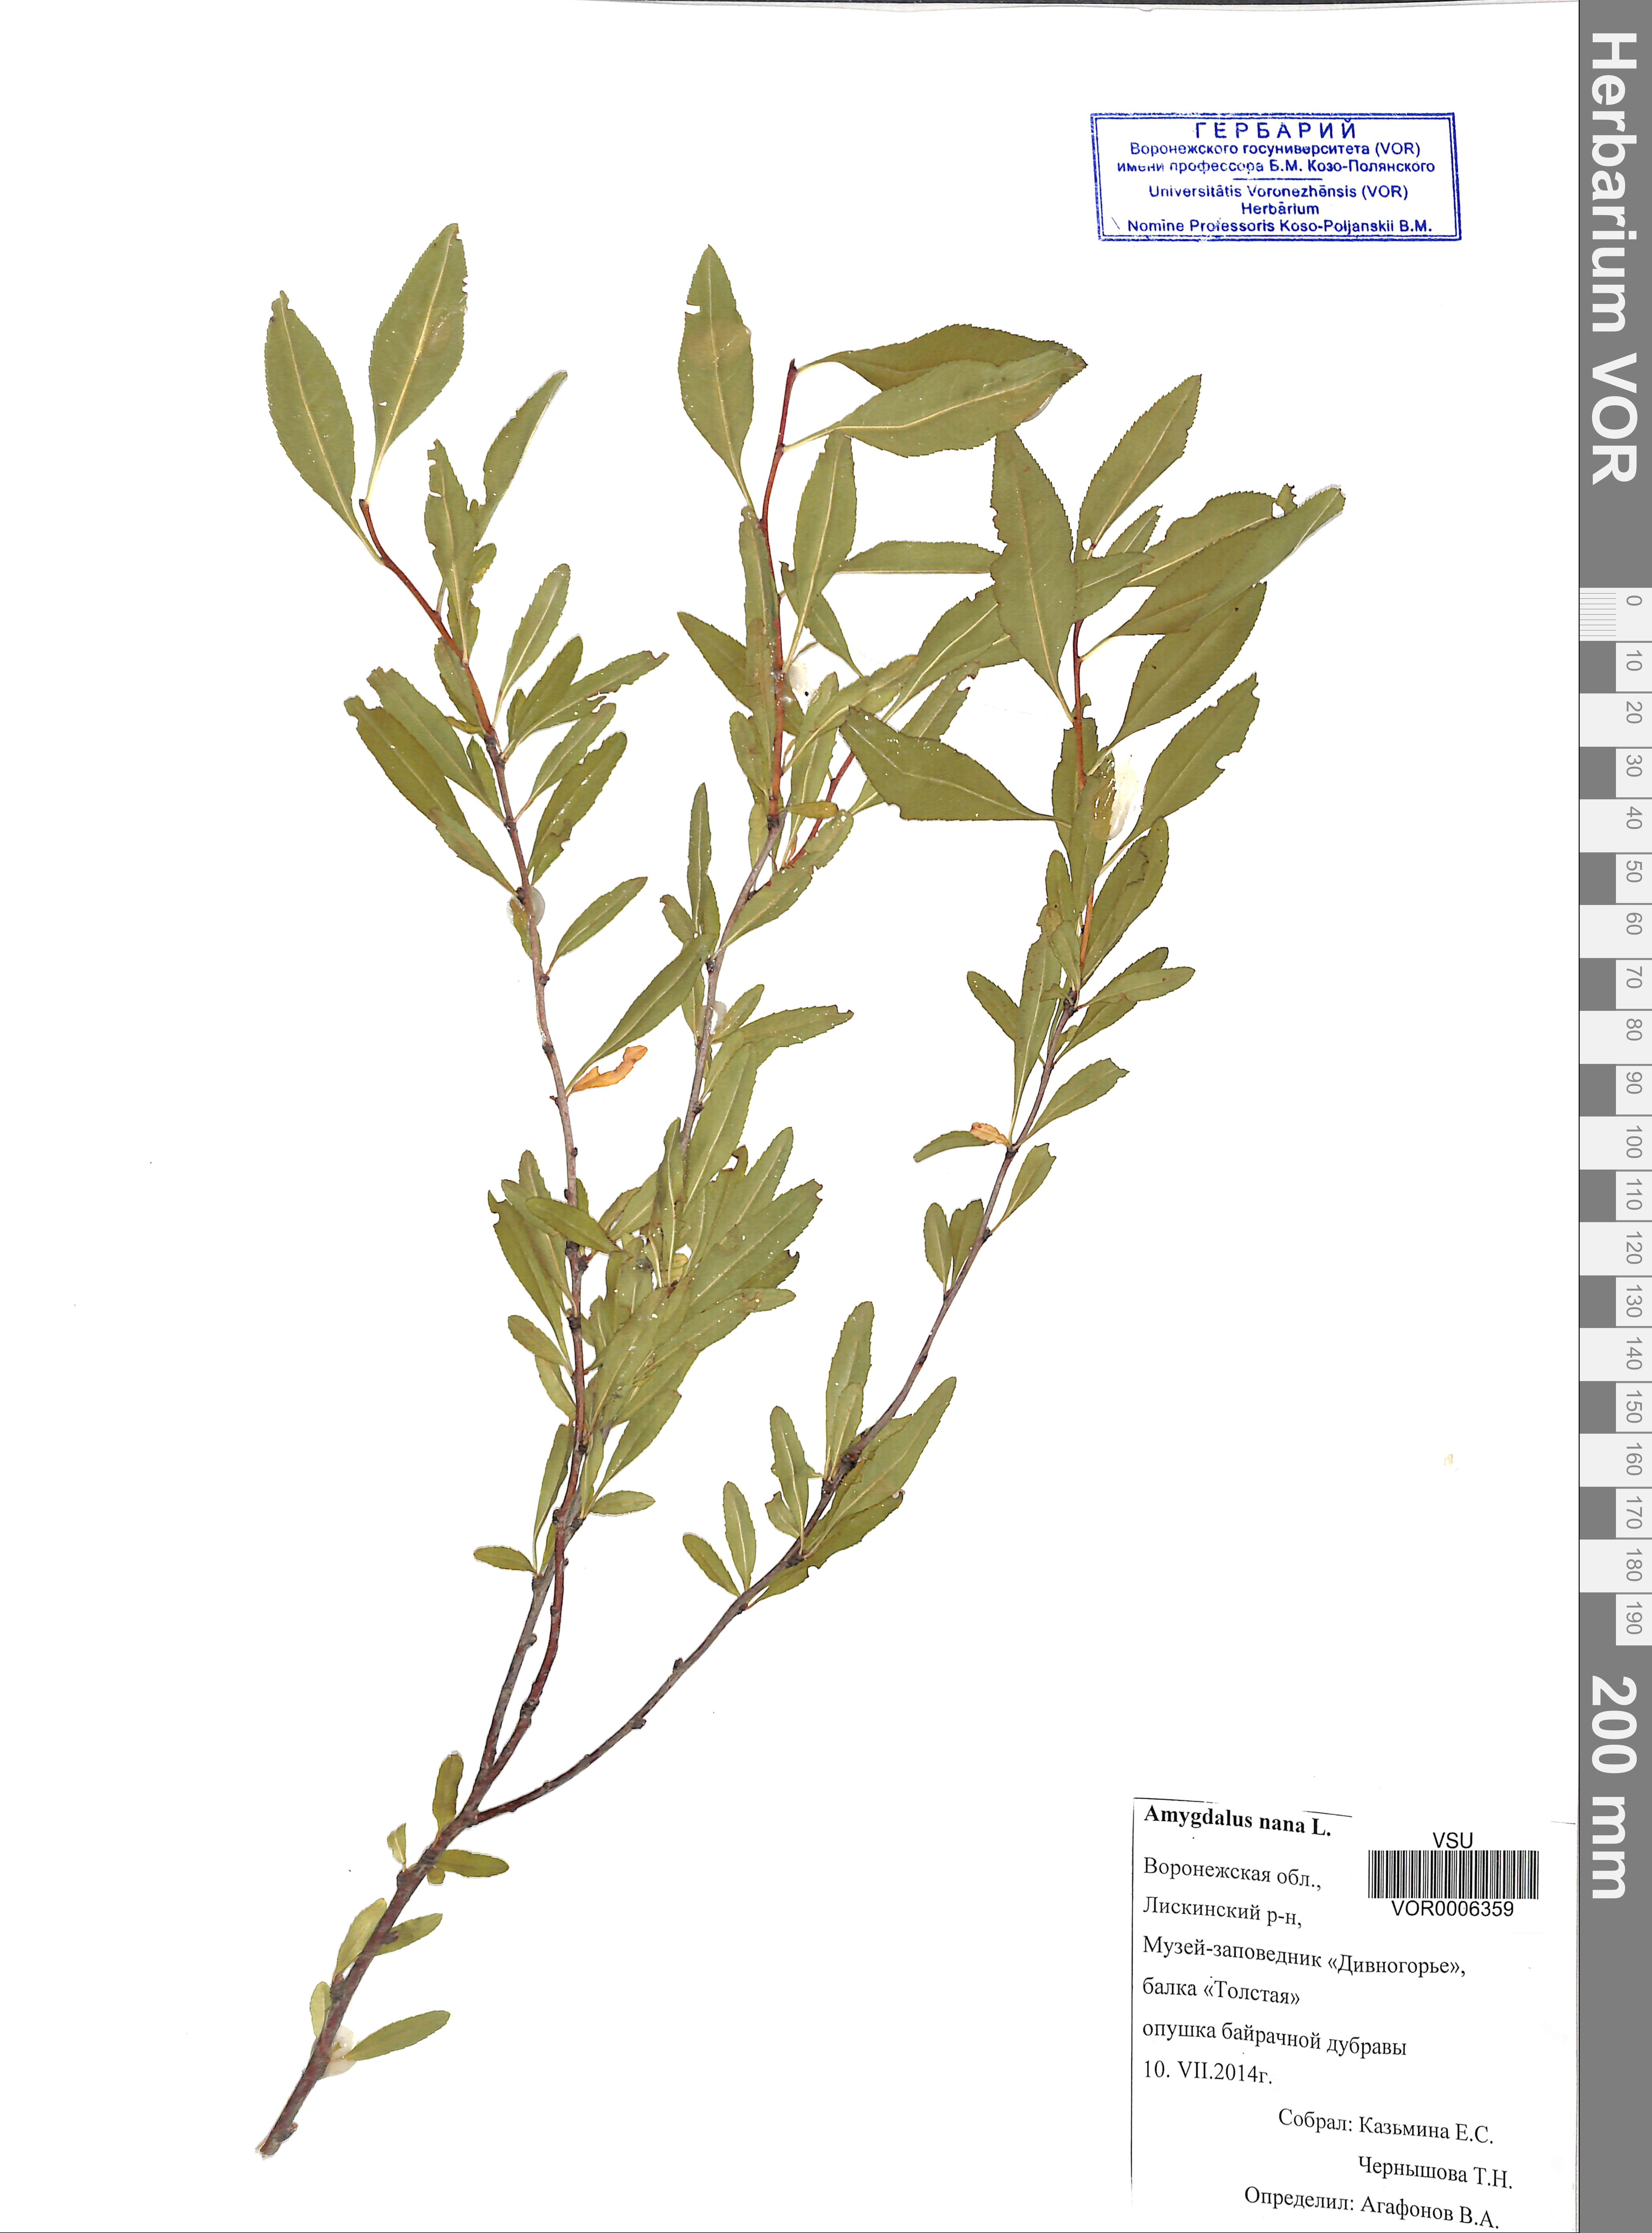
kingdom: Plantae
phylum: Tracheophyta
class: Magnoliopsida
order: Rosales
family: Rosaceae
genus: Prunus
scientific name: Prunus tenella
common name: Dwarf russian almond
